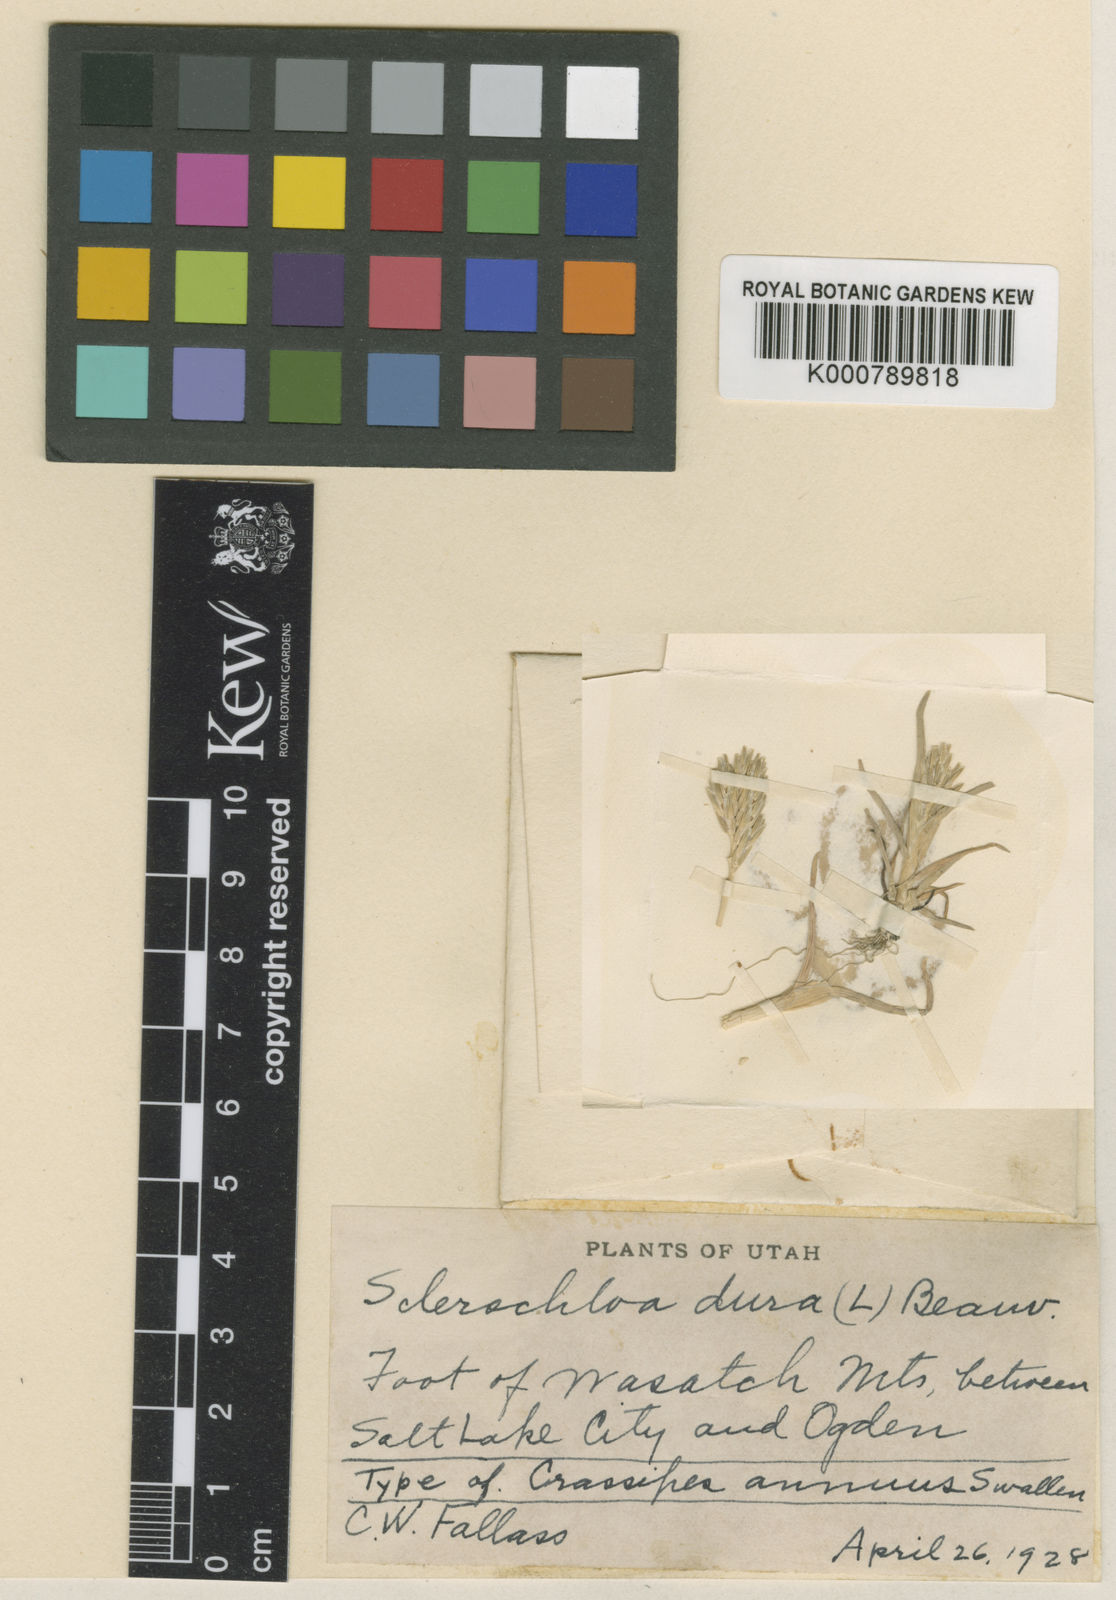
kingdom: Plantae
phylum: Tracheophyta
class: Liliopsida
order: Poales
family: Poaceae
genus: Sclerochloa
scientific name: Sclerochloa dura
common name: Common hardgrass
